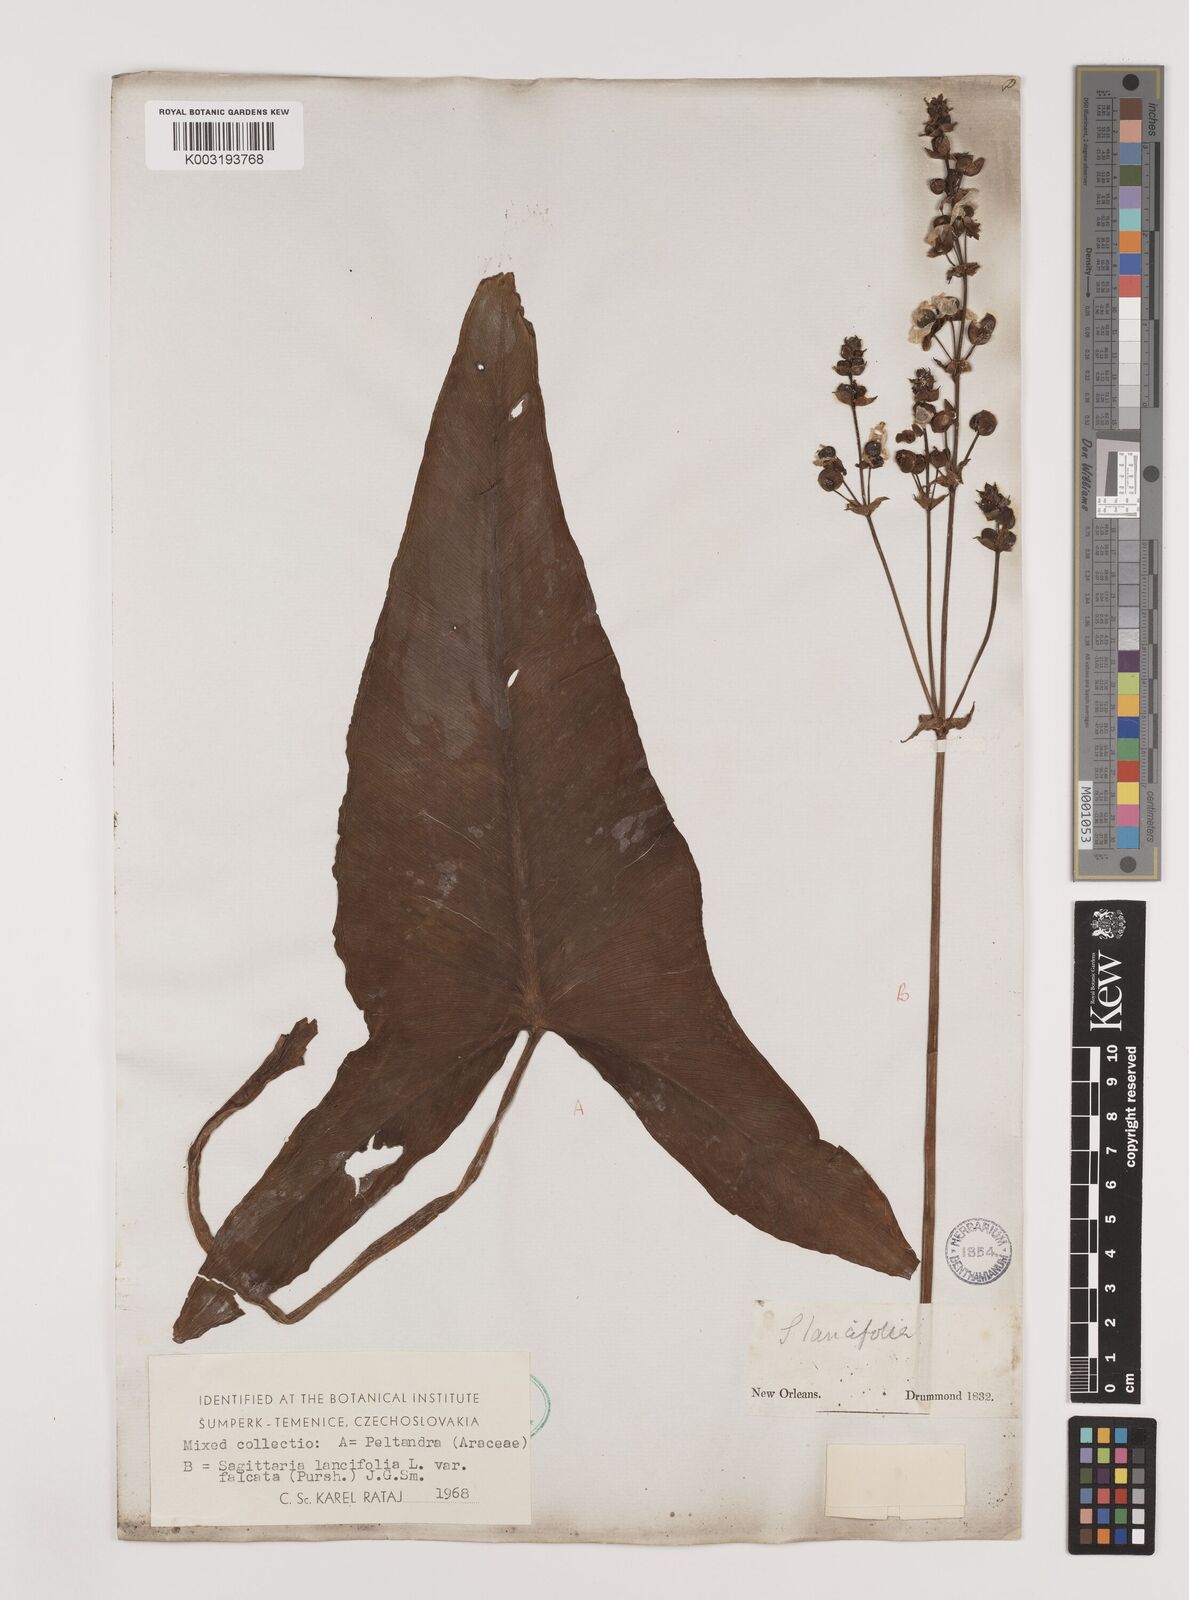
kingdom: Plantae
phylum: Tracheophyta
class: Liliopsida
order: Alismatales
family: Alismataceae
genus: Sagittaria
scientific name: Sagittaria lancifolia
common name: Lance-leaf arrowhead
